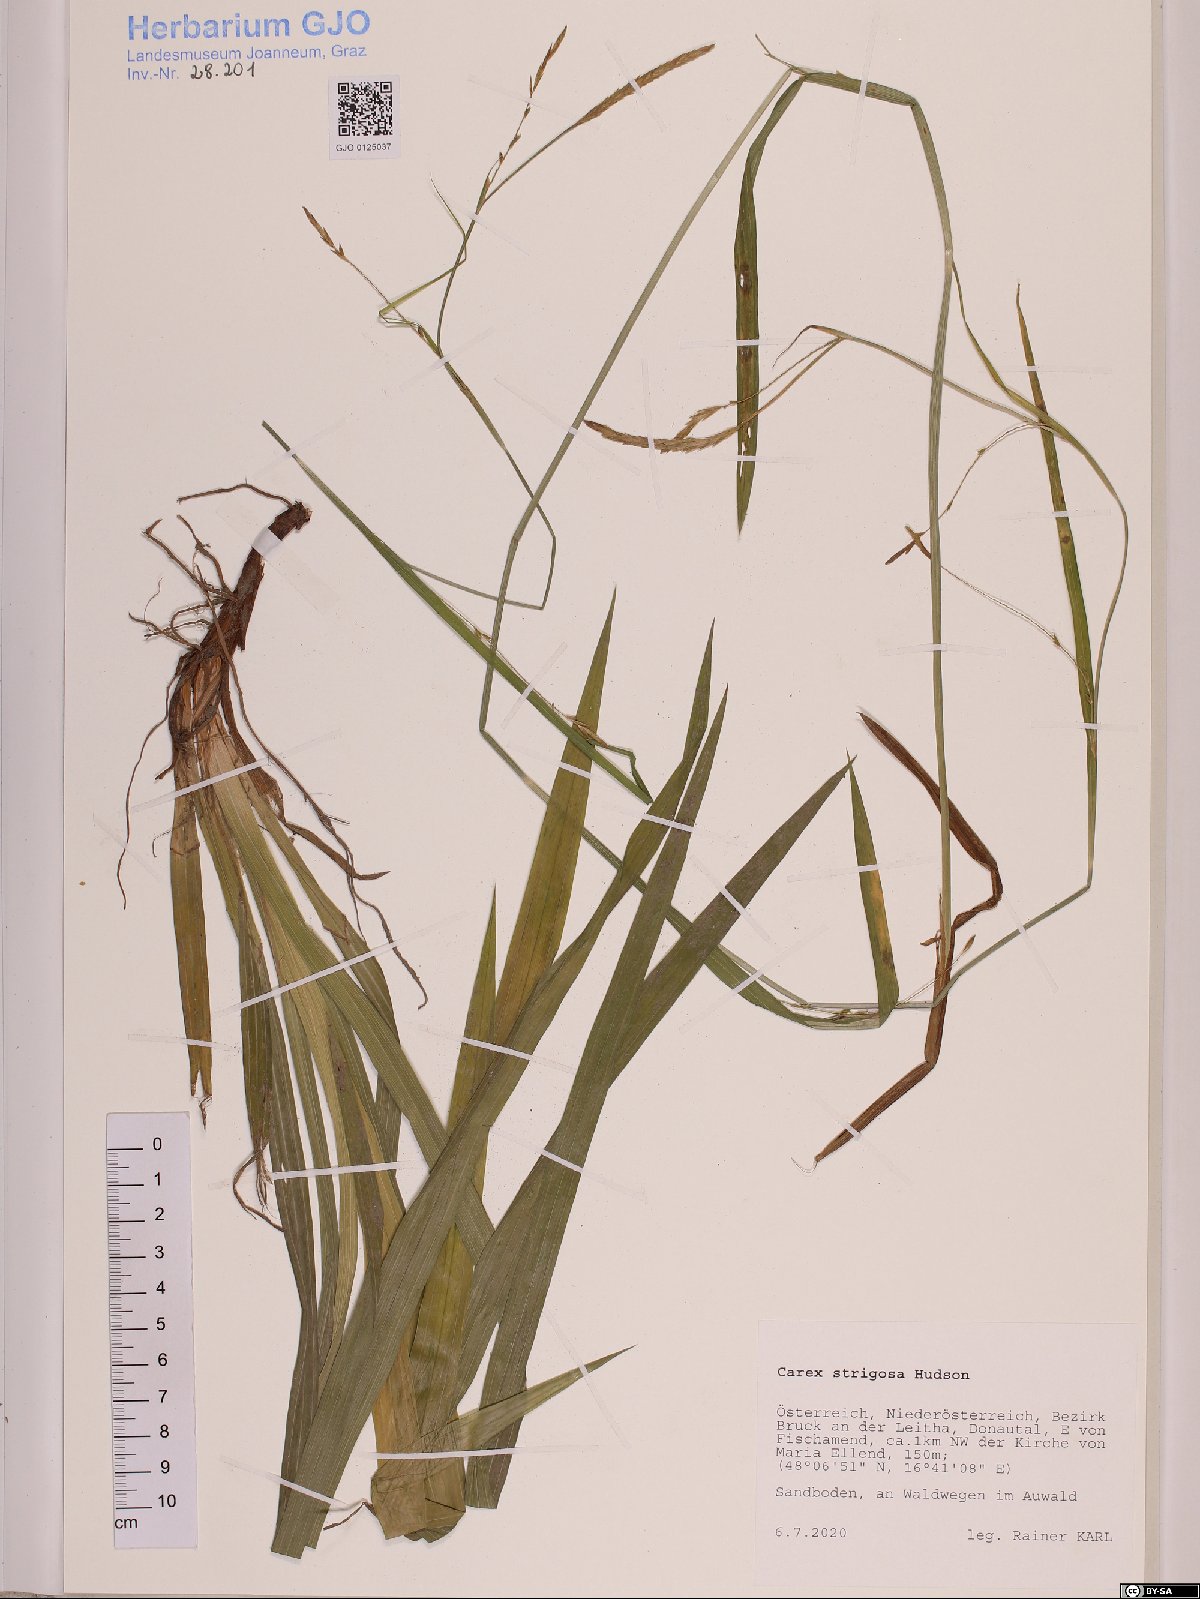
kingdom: Plantae
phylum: Tracheophyta
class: Liliopsida
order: Poales
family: Cyperaceae
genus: Carex
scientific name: Carex strigosa
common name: Thin-spiked wood-sedge
